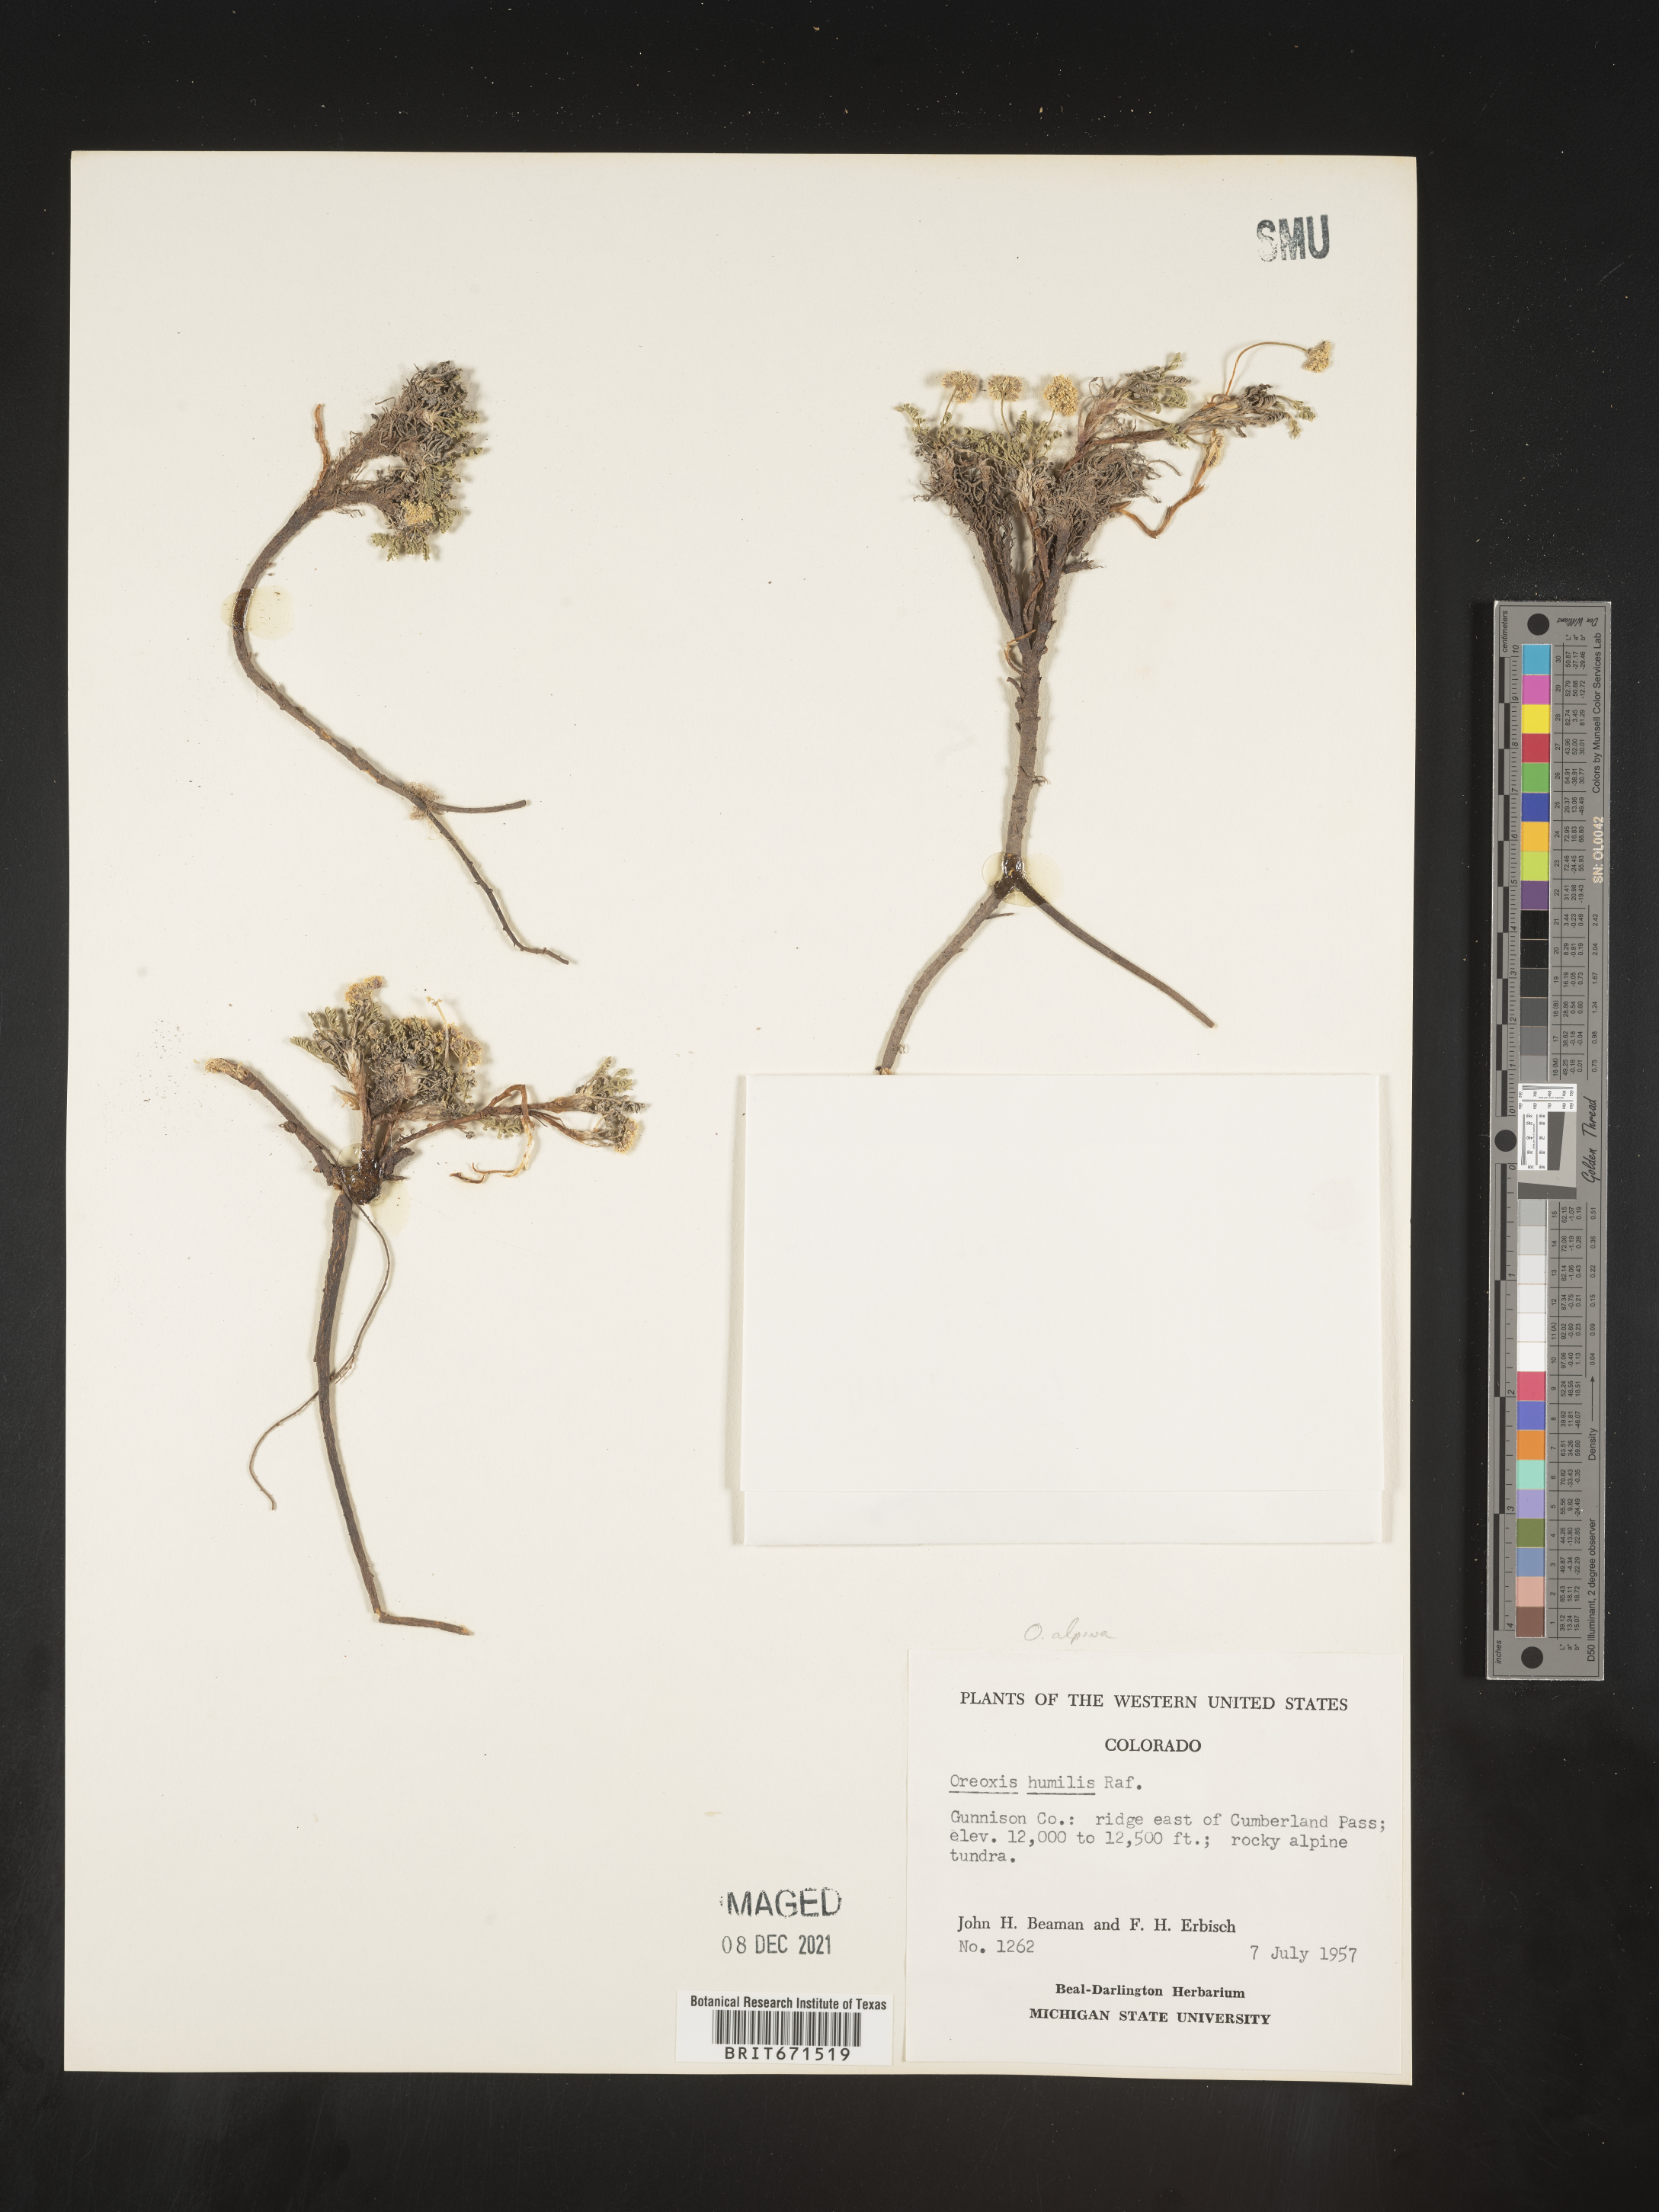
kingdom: Plantae
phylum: Tracheophyta
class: Magnoliopsida
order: Apiales
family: Apiaceae
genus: Oreoxis
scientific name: Oreoxis alpina
